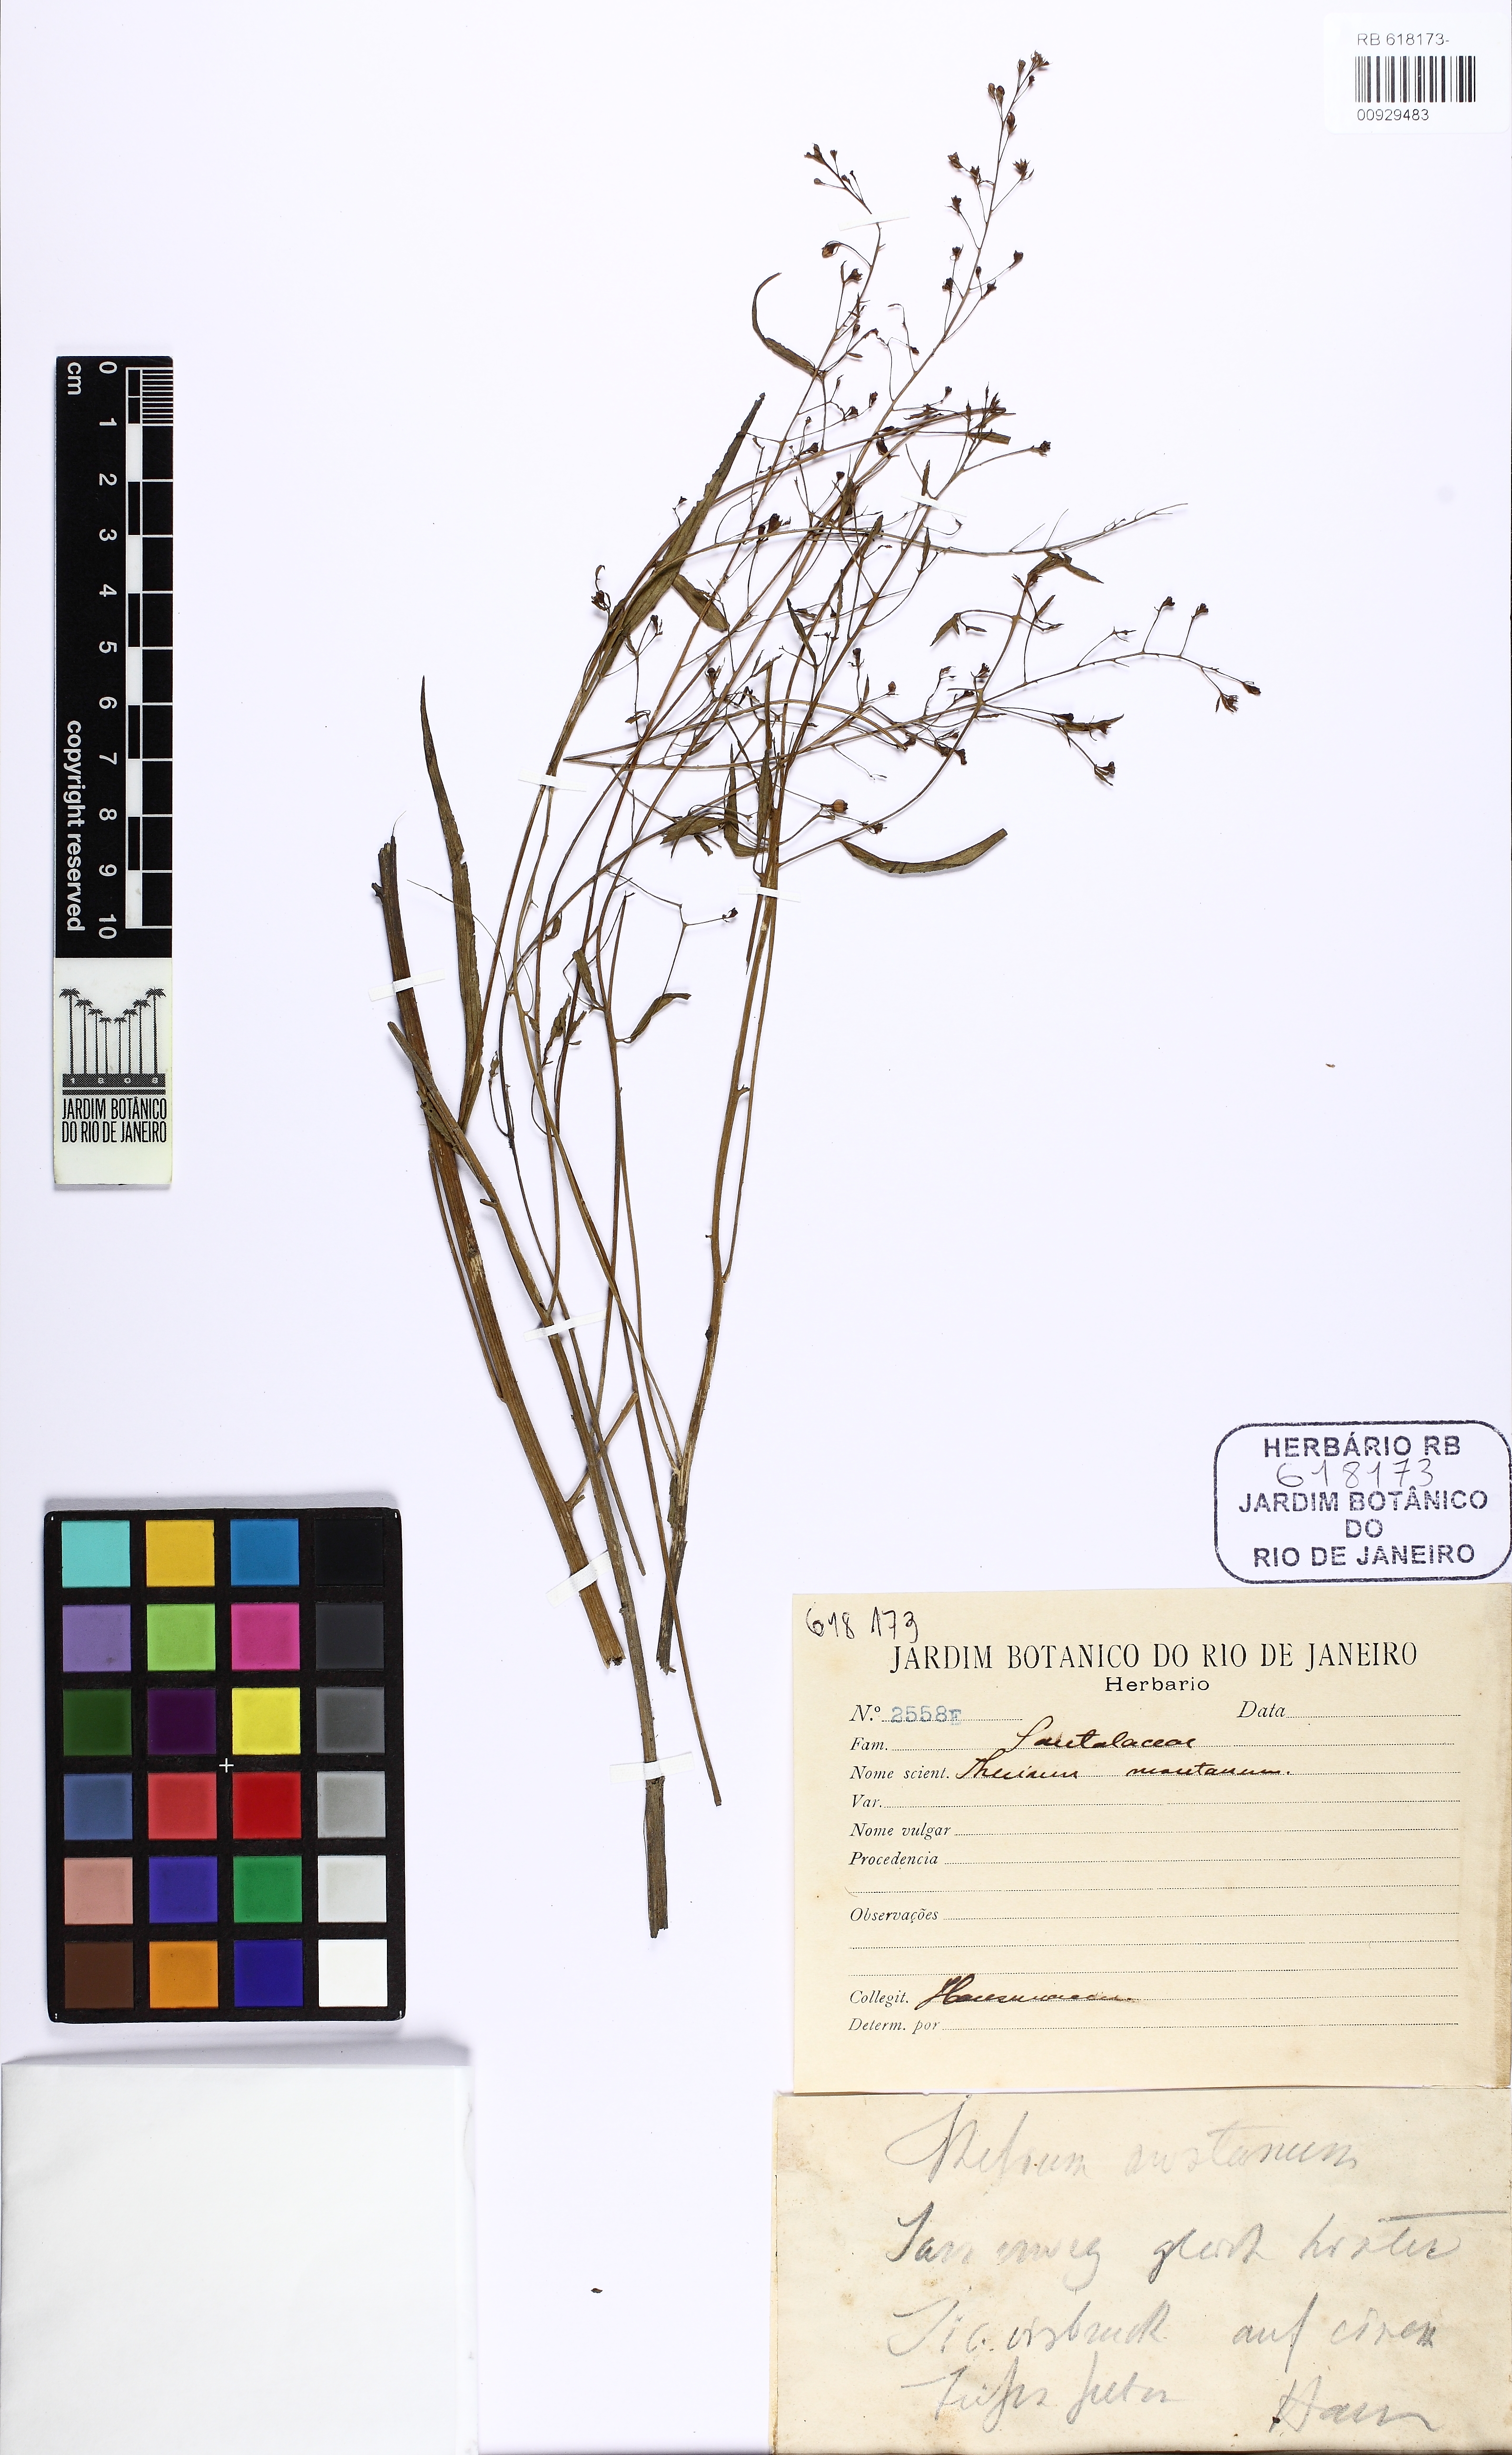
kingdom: Plantae
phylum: Tracheophyta
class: Magnoliopsida
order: Santalales
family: Thesiaceae
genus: Thesium
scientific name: Thesium bavarum
